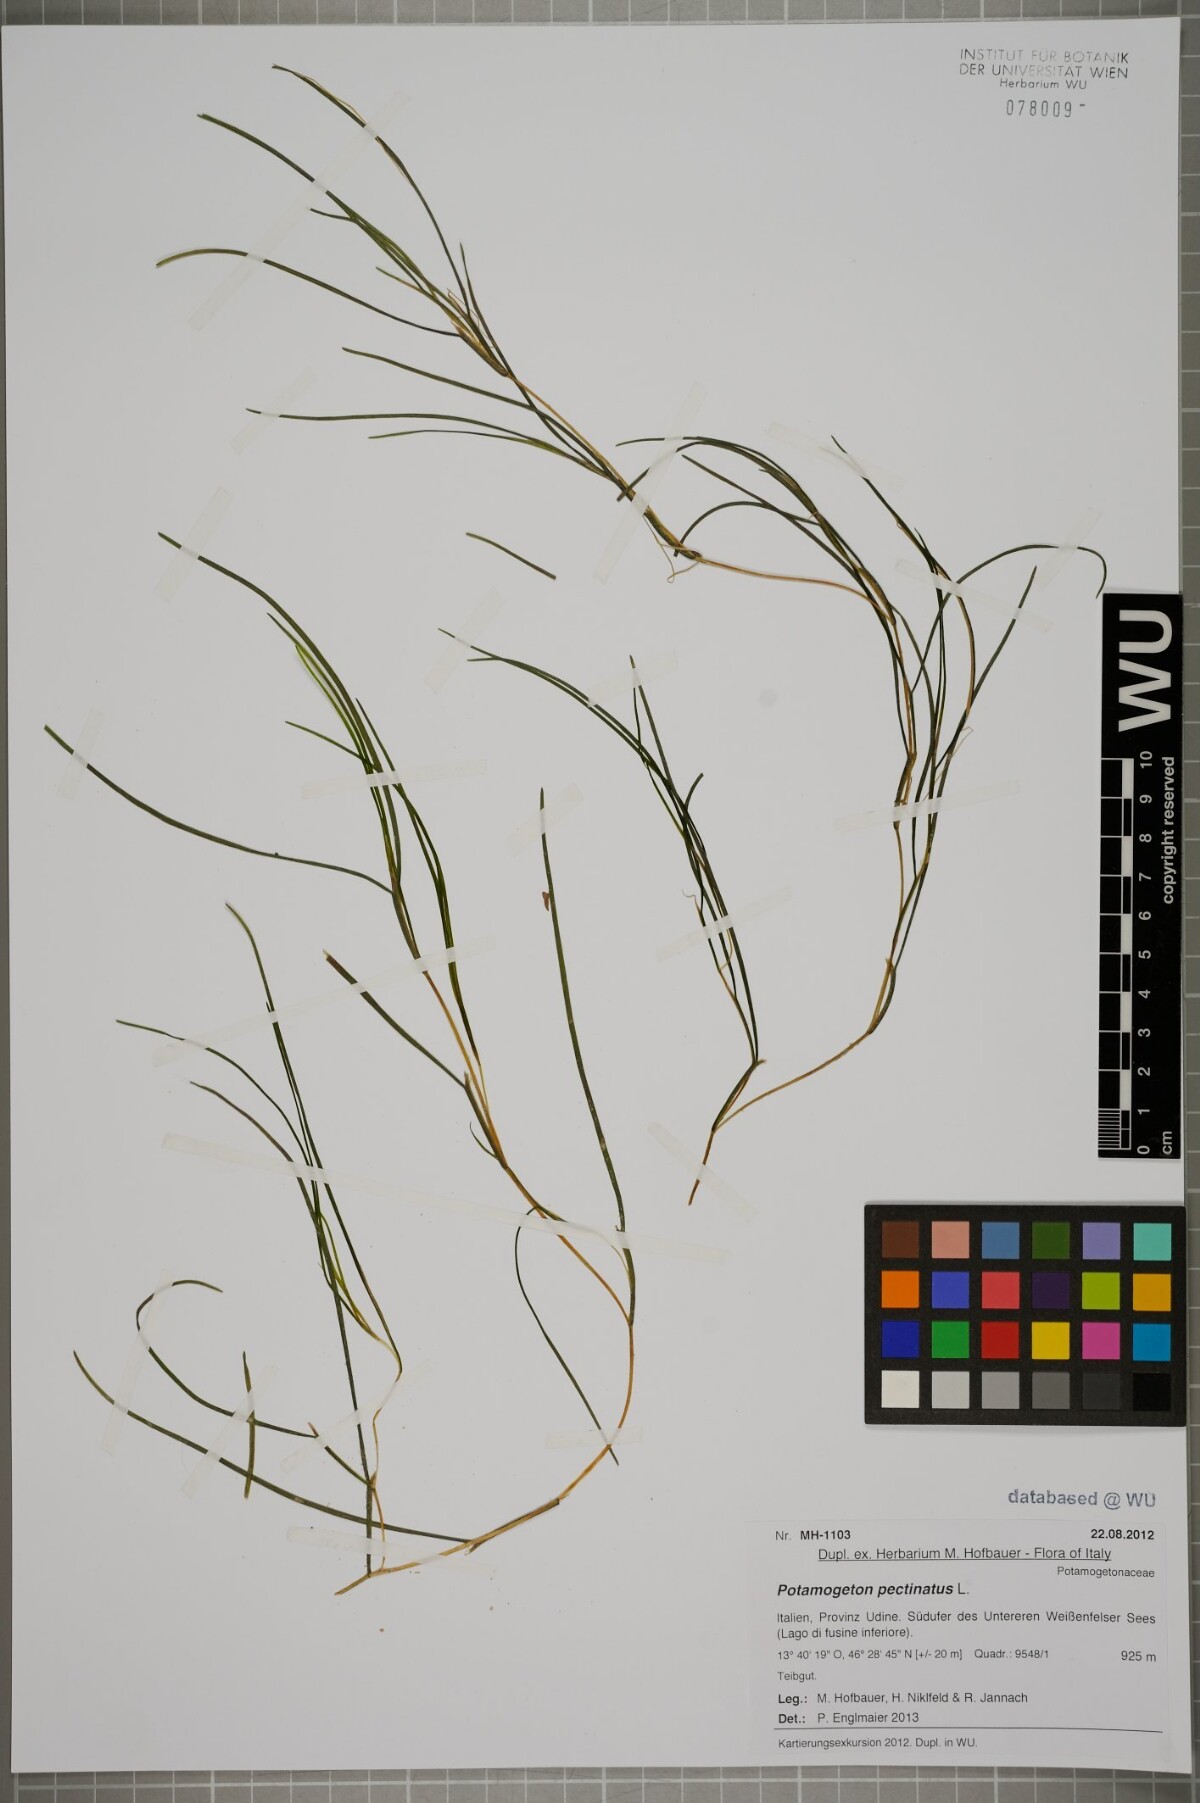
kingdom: Plantae
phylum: Tracheophyta
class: Liliopsida
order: Alismatales
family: Potamogetonaceae
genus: Stuckenia
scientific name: Stuckenia pectinata
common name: Sago pondweed
